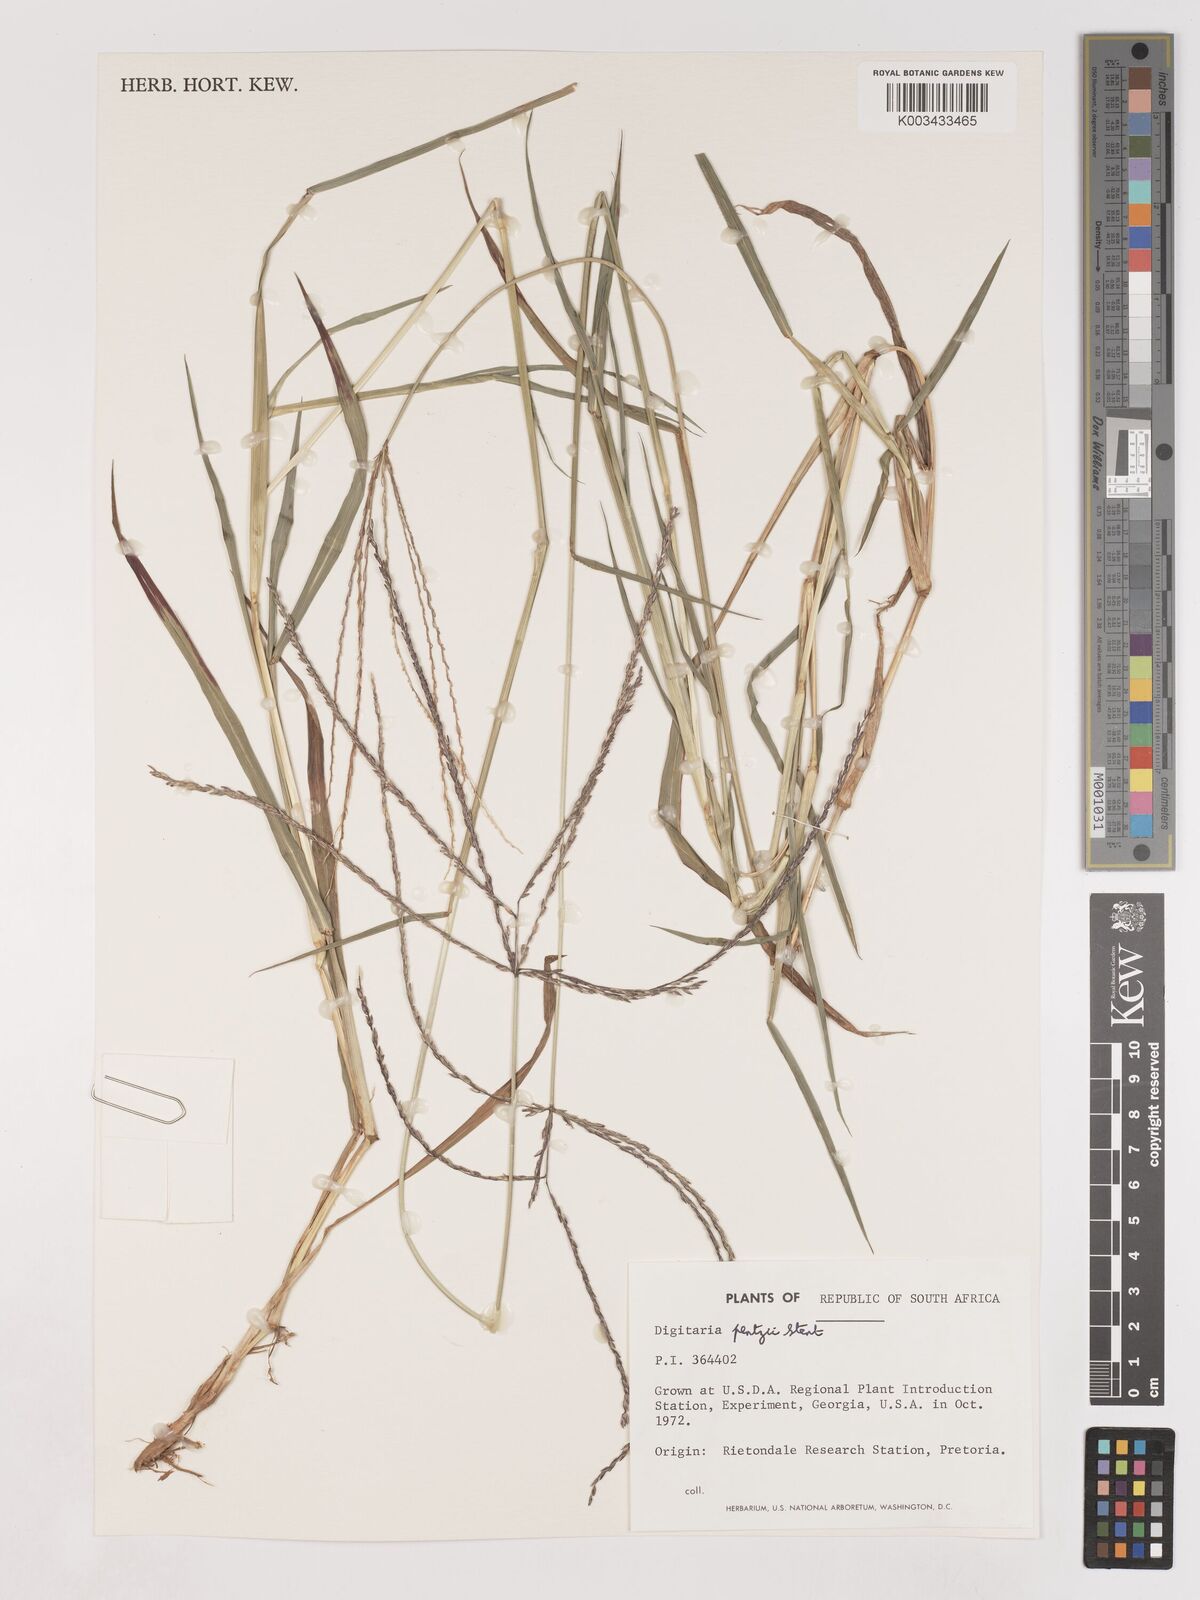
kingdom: Plantae
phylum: Tracheophyta
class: Liliopsida
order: Poales
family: Poaceae
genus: Digitaria
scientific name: Digitaria eriantha
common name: Digitgrass
